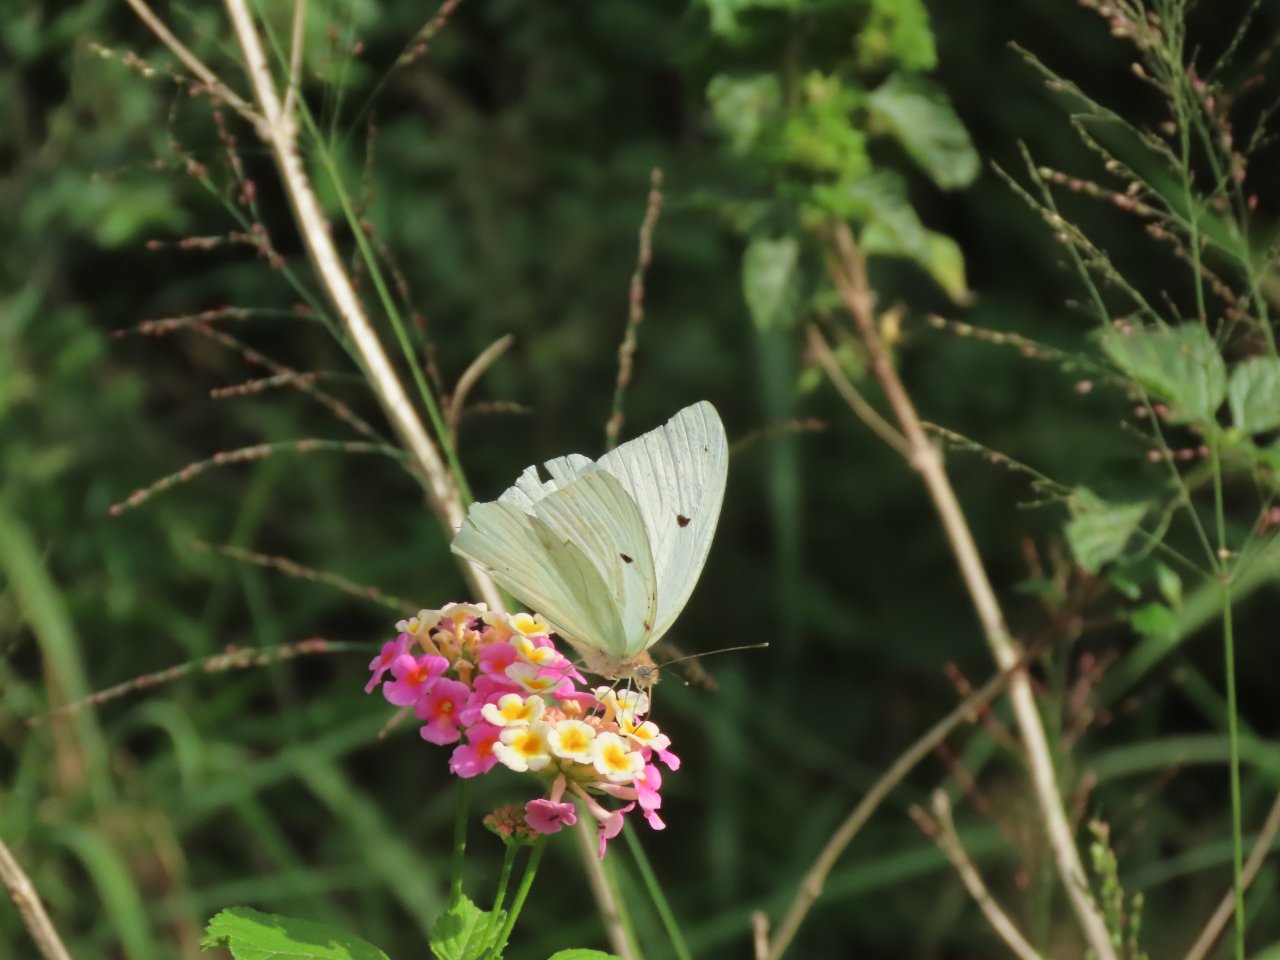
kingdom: Animalia
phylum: Arthropoda
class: Insecta
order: Lepidoptera
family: Pieridae
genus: Ganyra
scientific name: Ganyra josephina
